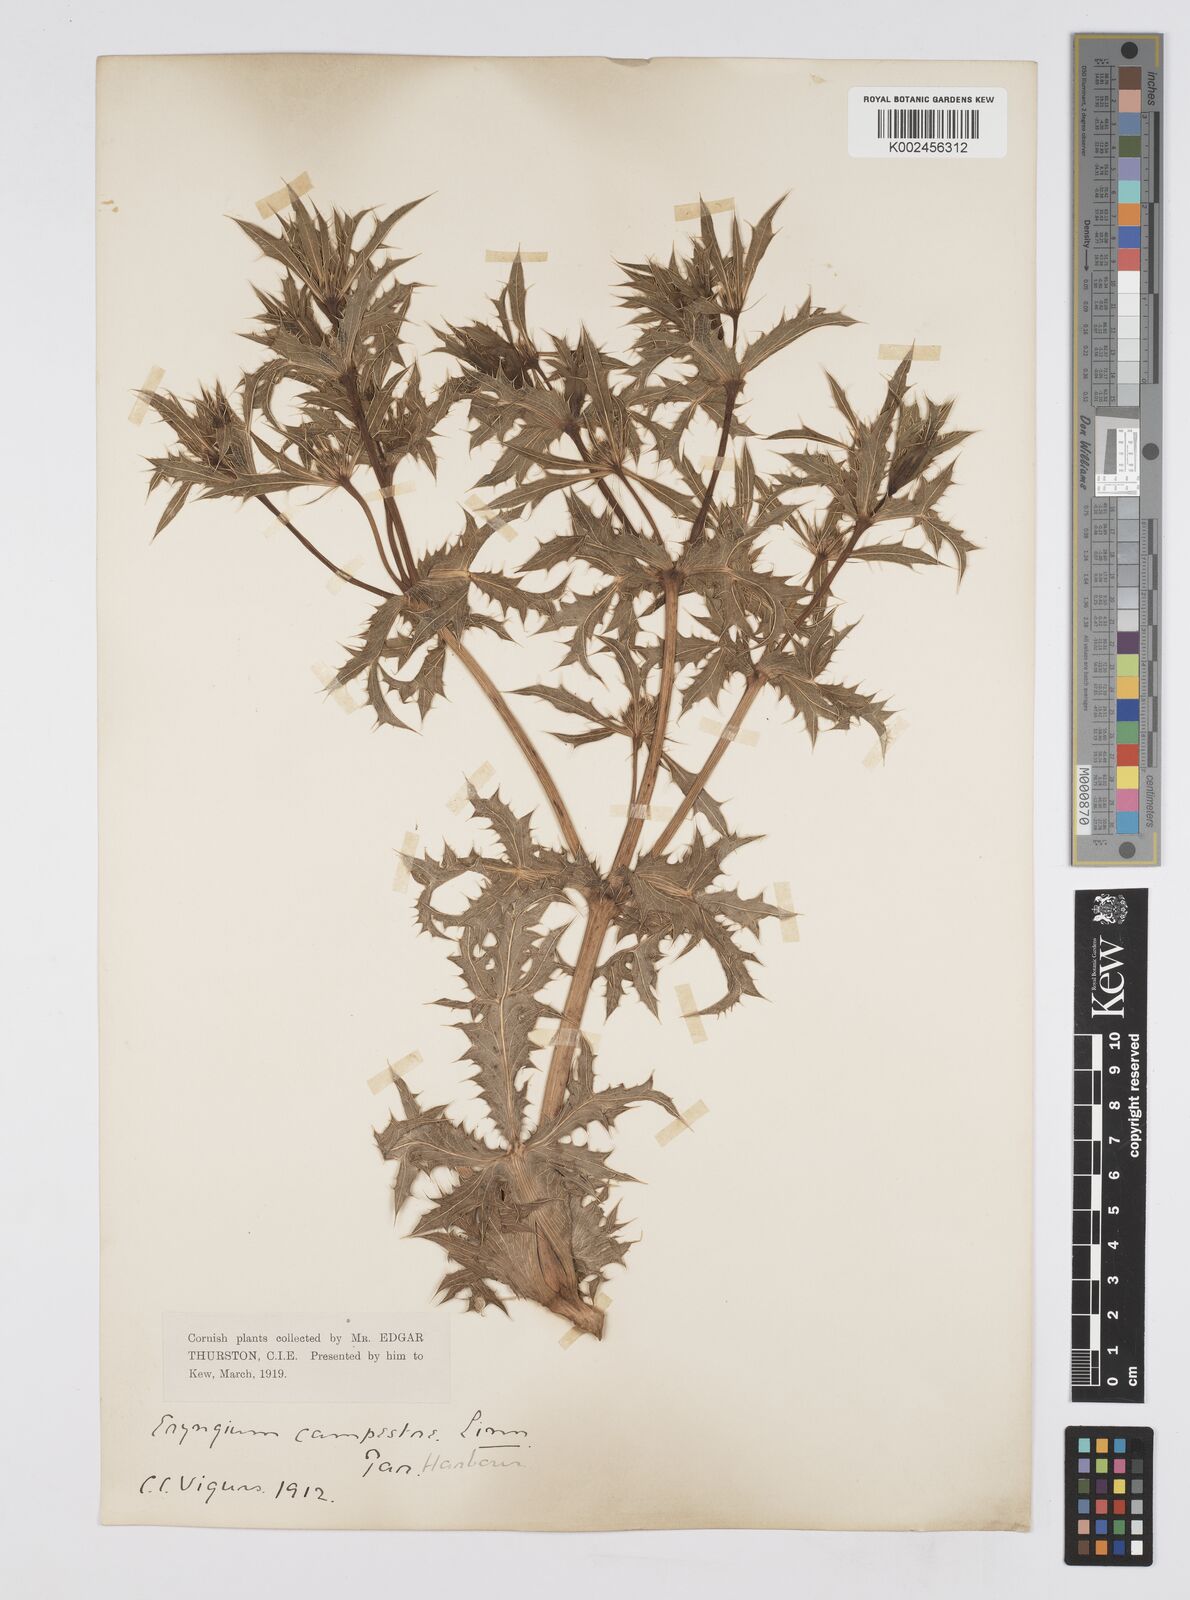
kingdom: Plantae
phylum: Tracheophyta
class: Magnoliopsida
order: Apiales
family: Apiaceae
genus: Eryngium
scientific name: Eryngium campestre
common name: Field eryngo
